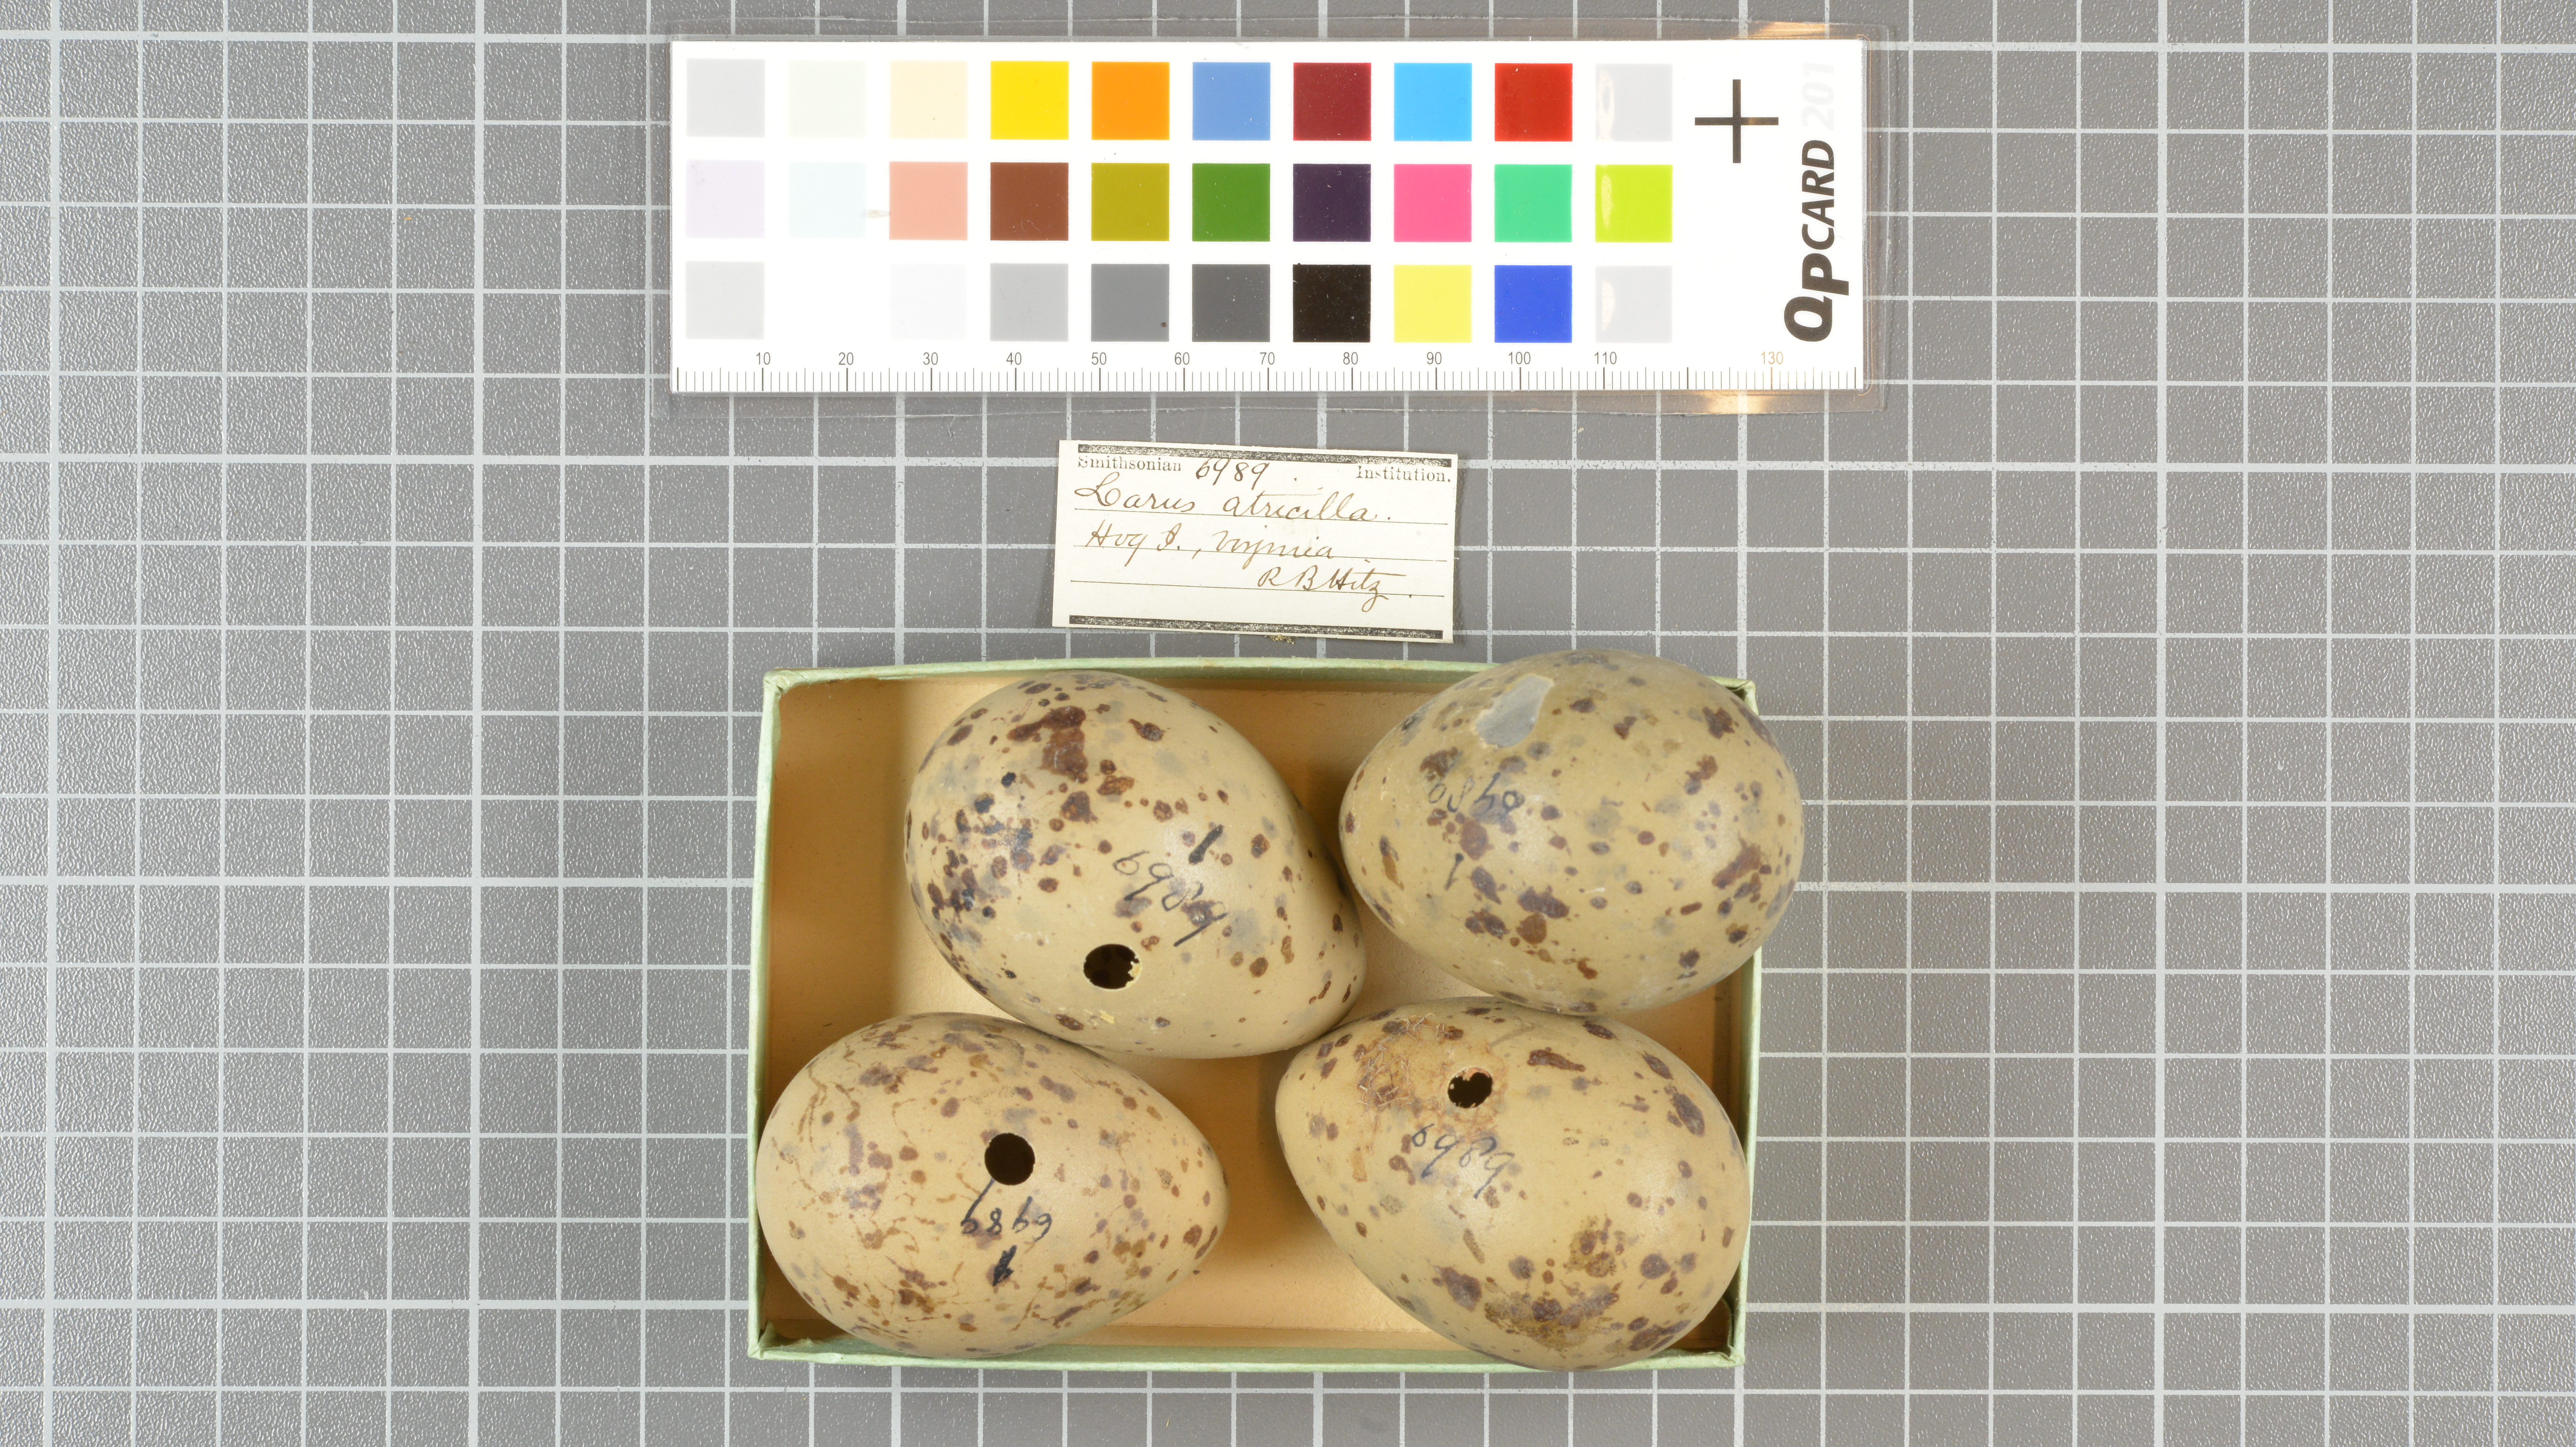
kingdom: Animalia
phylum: Chordata
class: Aves
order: Charadriiformes
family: Laridae
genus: Leucophaeus
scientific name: Leucophaeus atricilla
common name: Laughing gull
